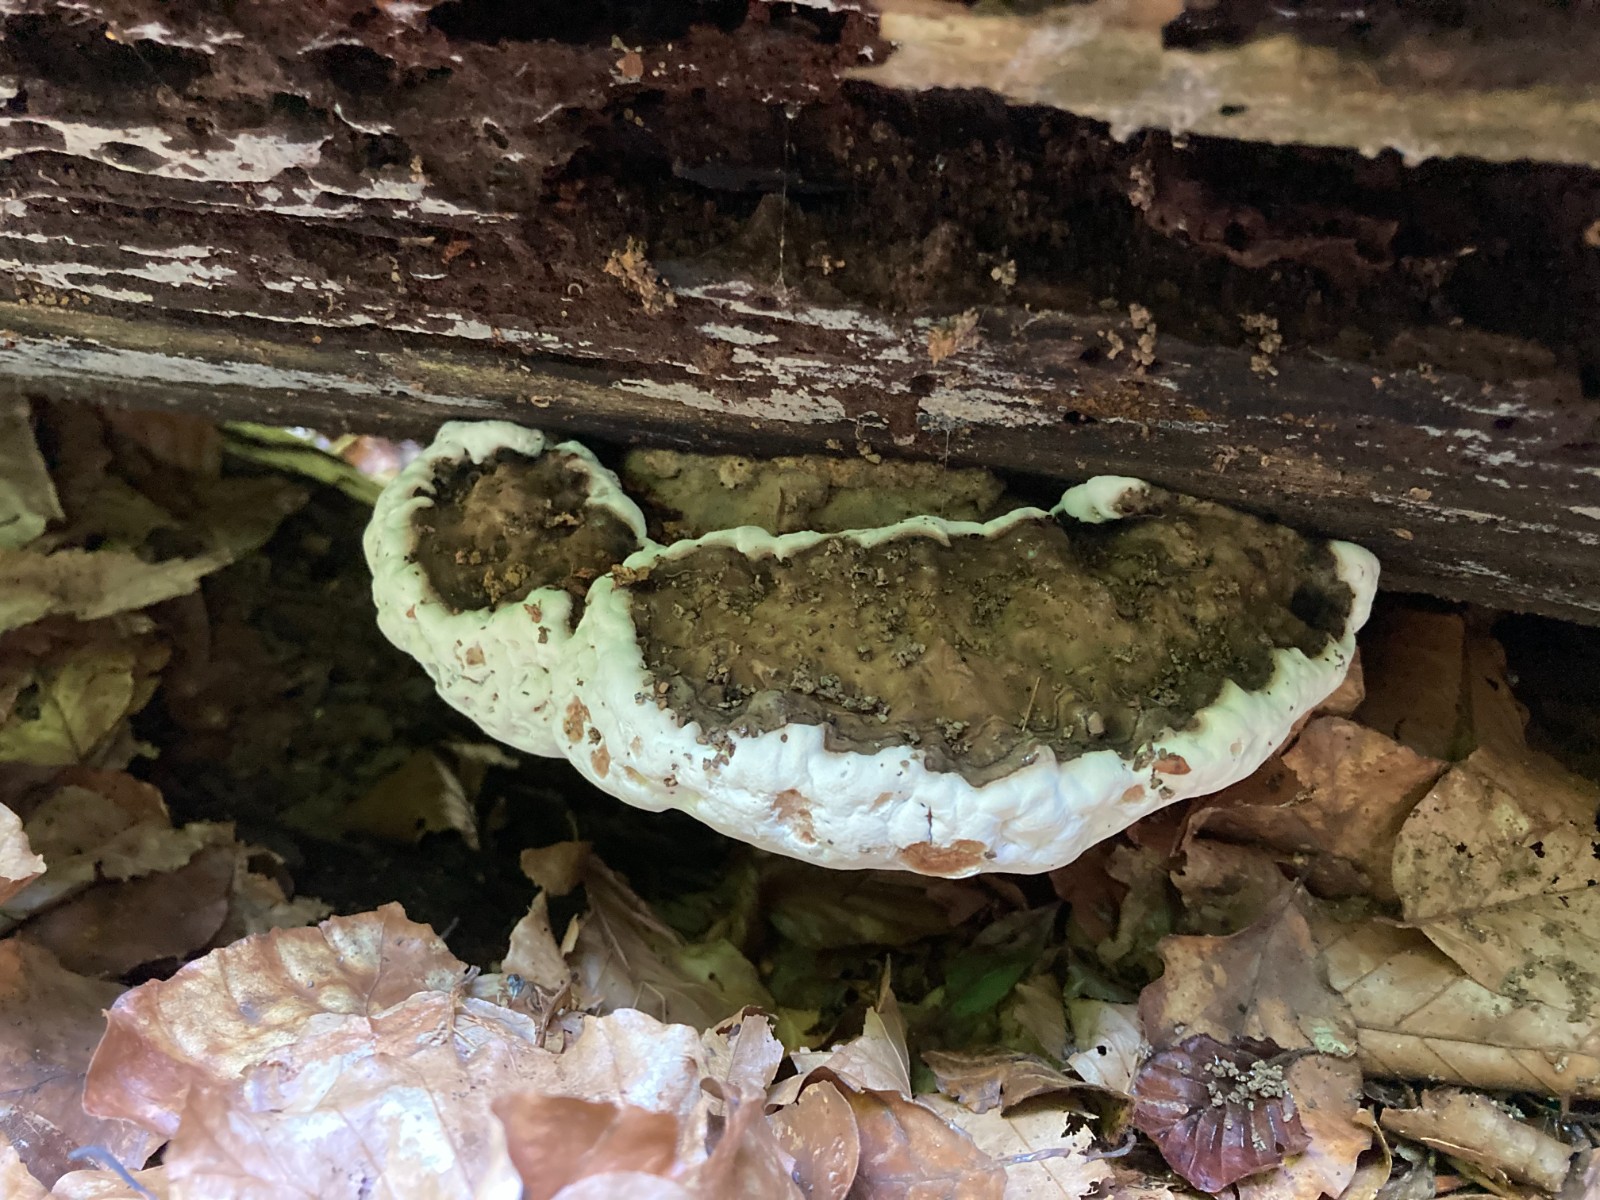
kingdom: Fungi
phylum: Basidiomycota
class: Agaricomycetes
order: Polyporales
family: Polyporaceae
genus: Ganoderma
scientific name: Ganoderma applanatum
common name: flad lakporesvamp
